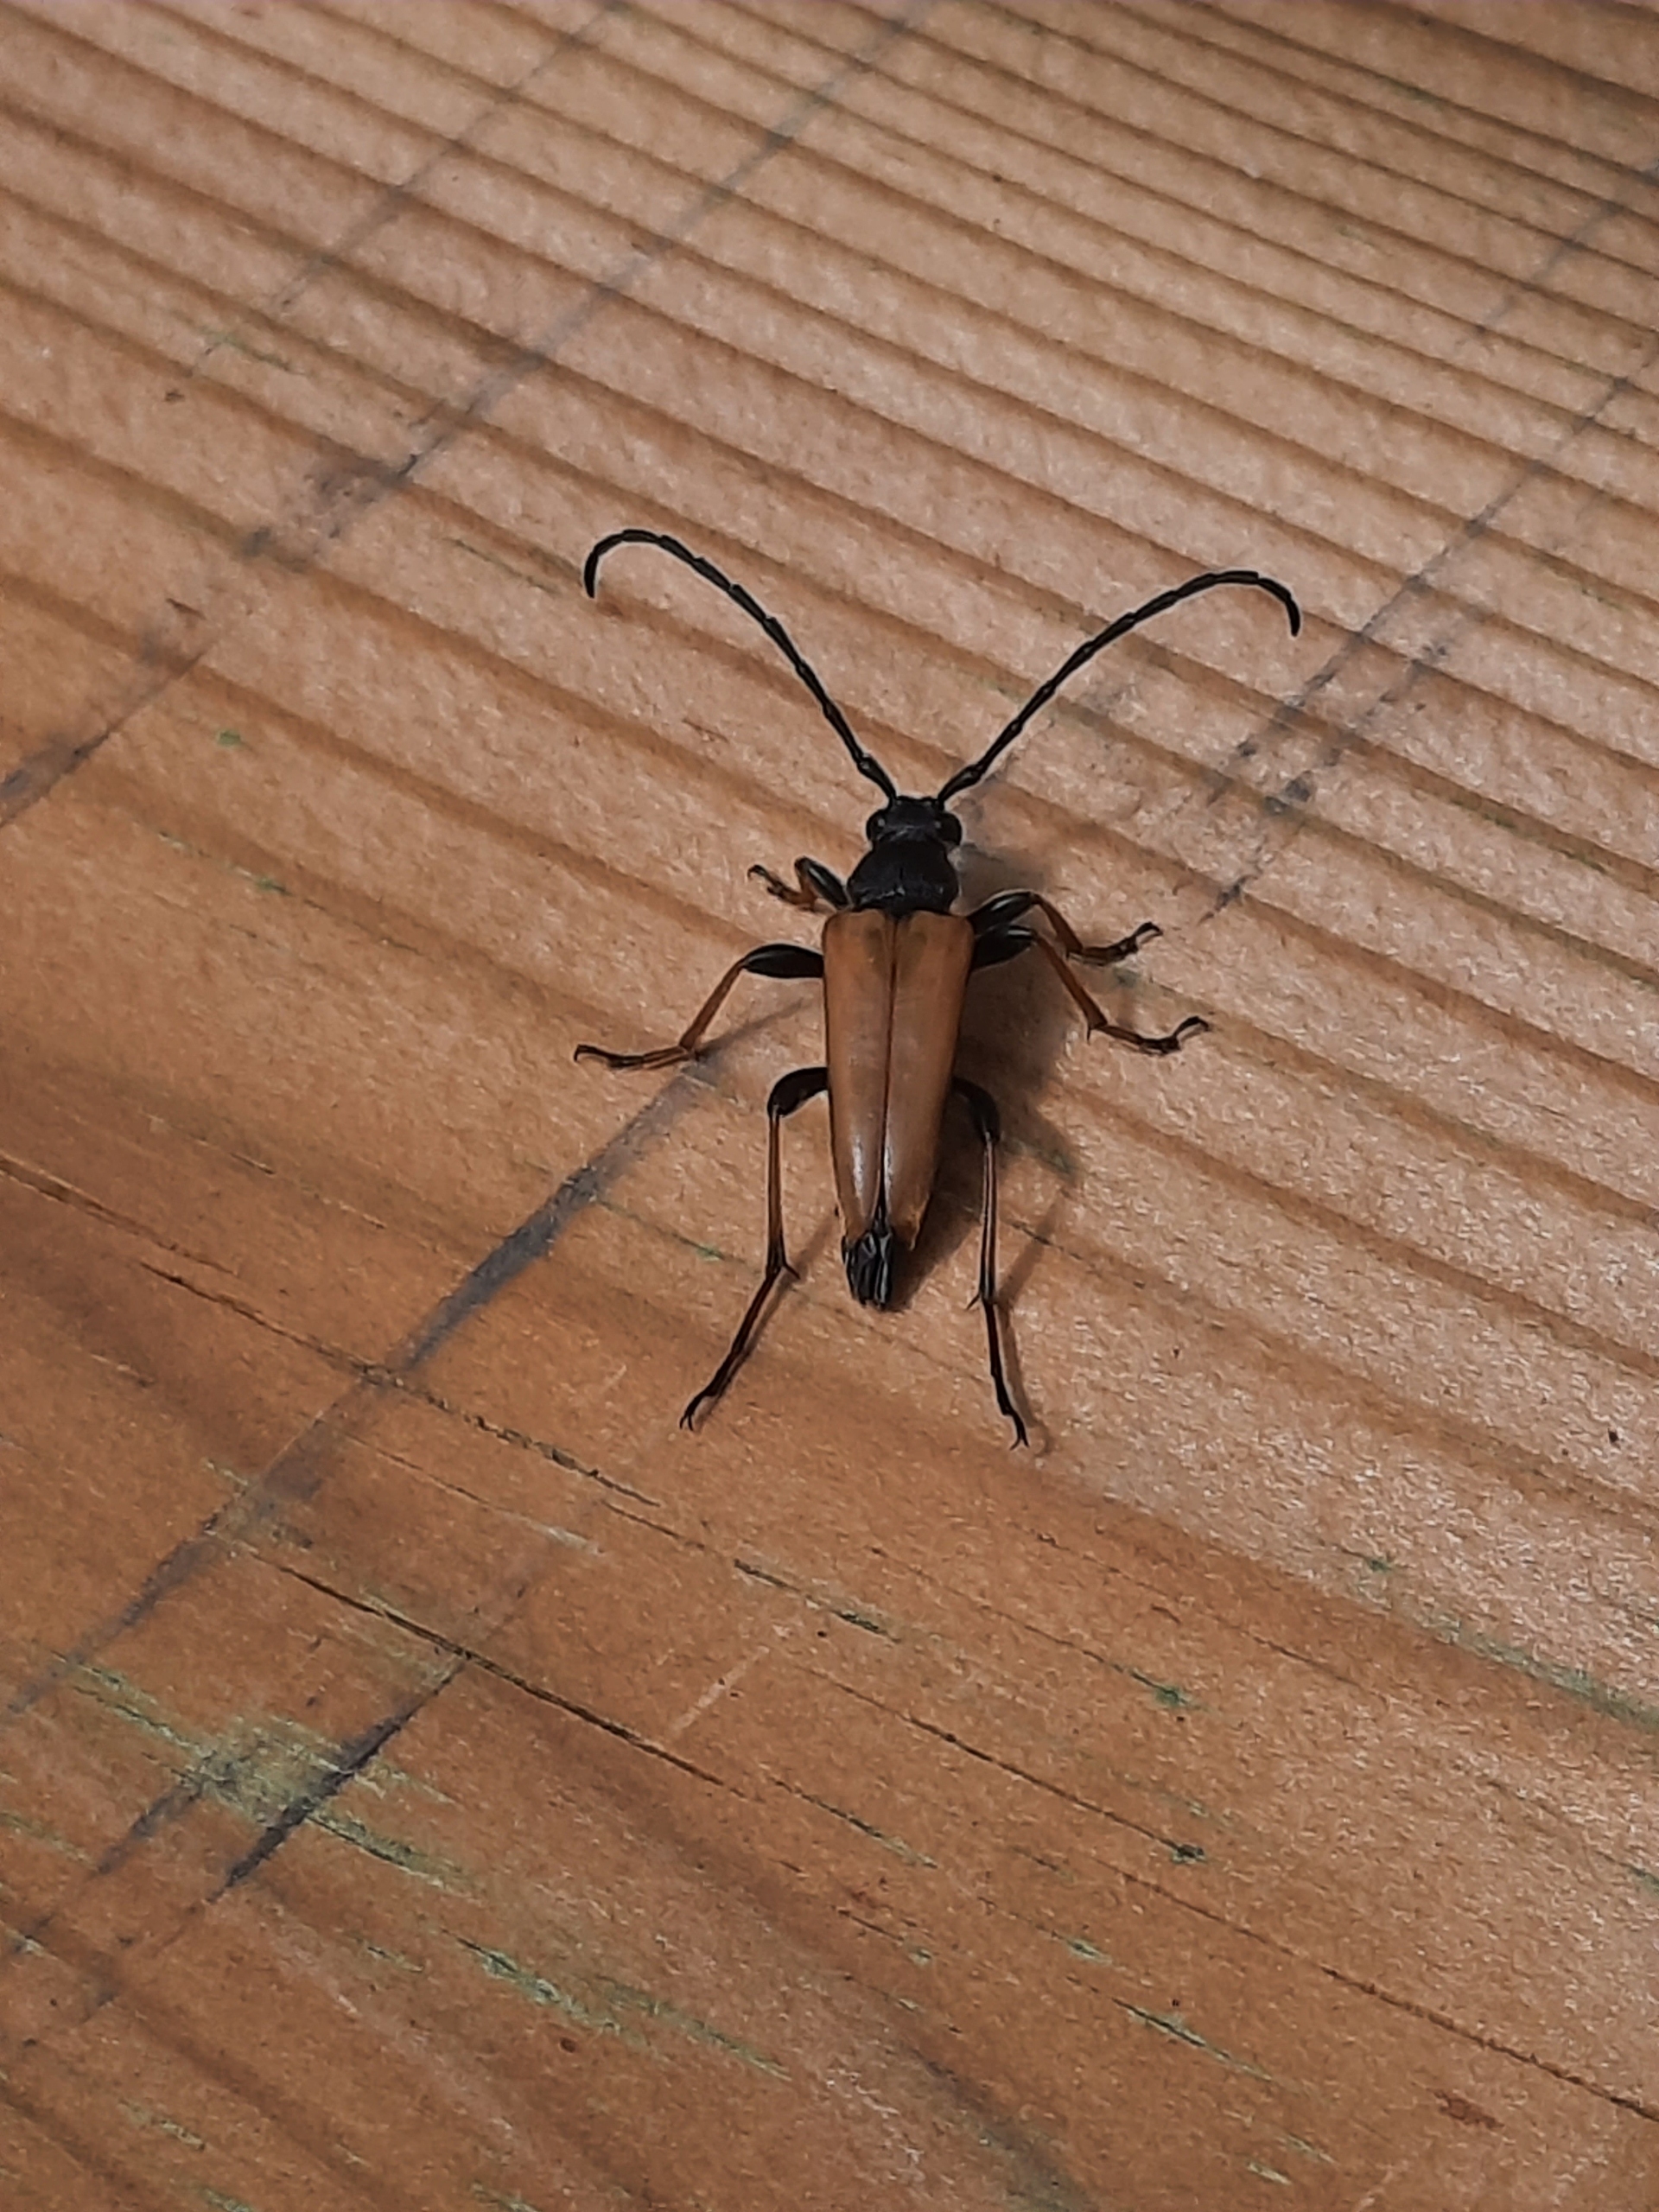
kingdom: Animalia
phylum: Arthropoda
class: Insecta
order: Coleoptera
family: Cerambycidae
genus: Stictoleptura
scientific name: Stictoleptura rubra
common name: Rød blomsterbuk
